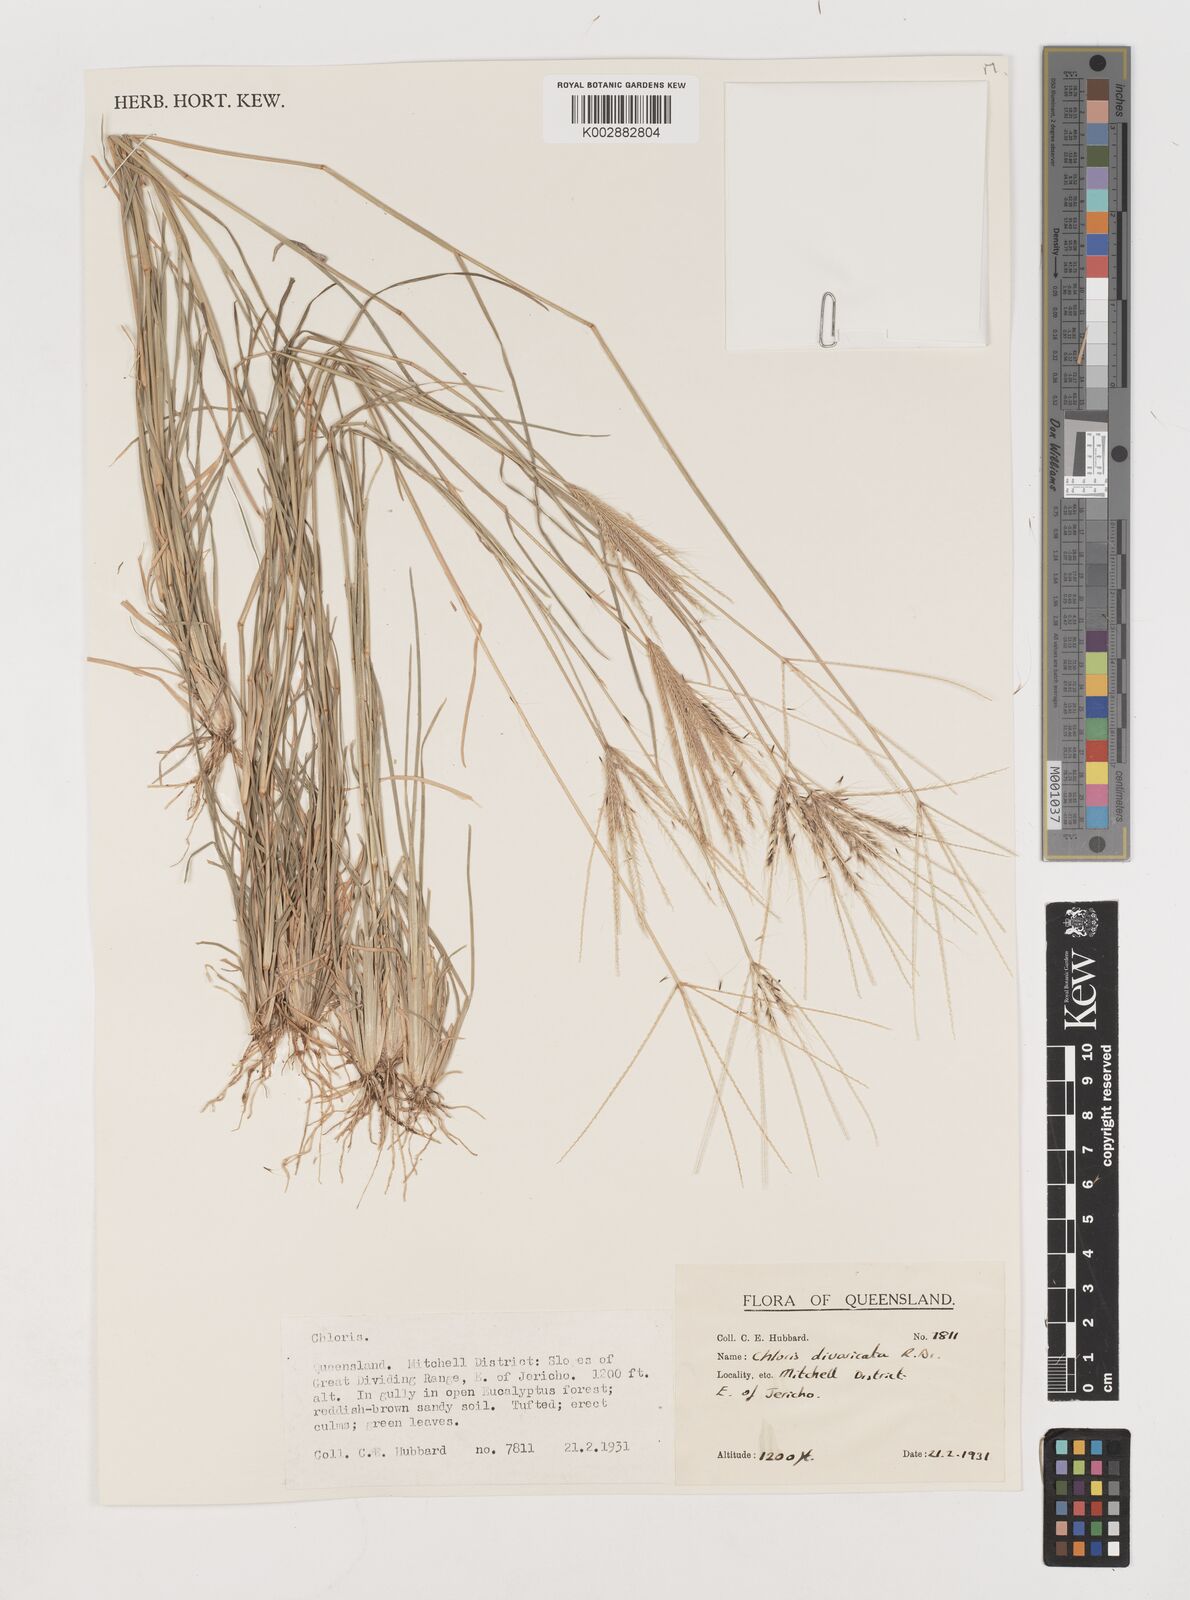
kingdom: Plantae
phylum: Tracheophyta
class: Liliopsida
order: Poales
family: Poaceae
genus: Chloris
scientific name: Chloris pectinata
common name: Comb windmill grass
